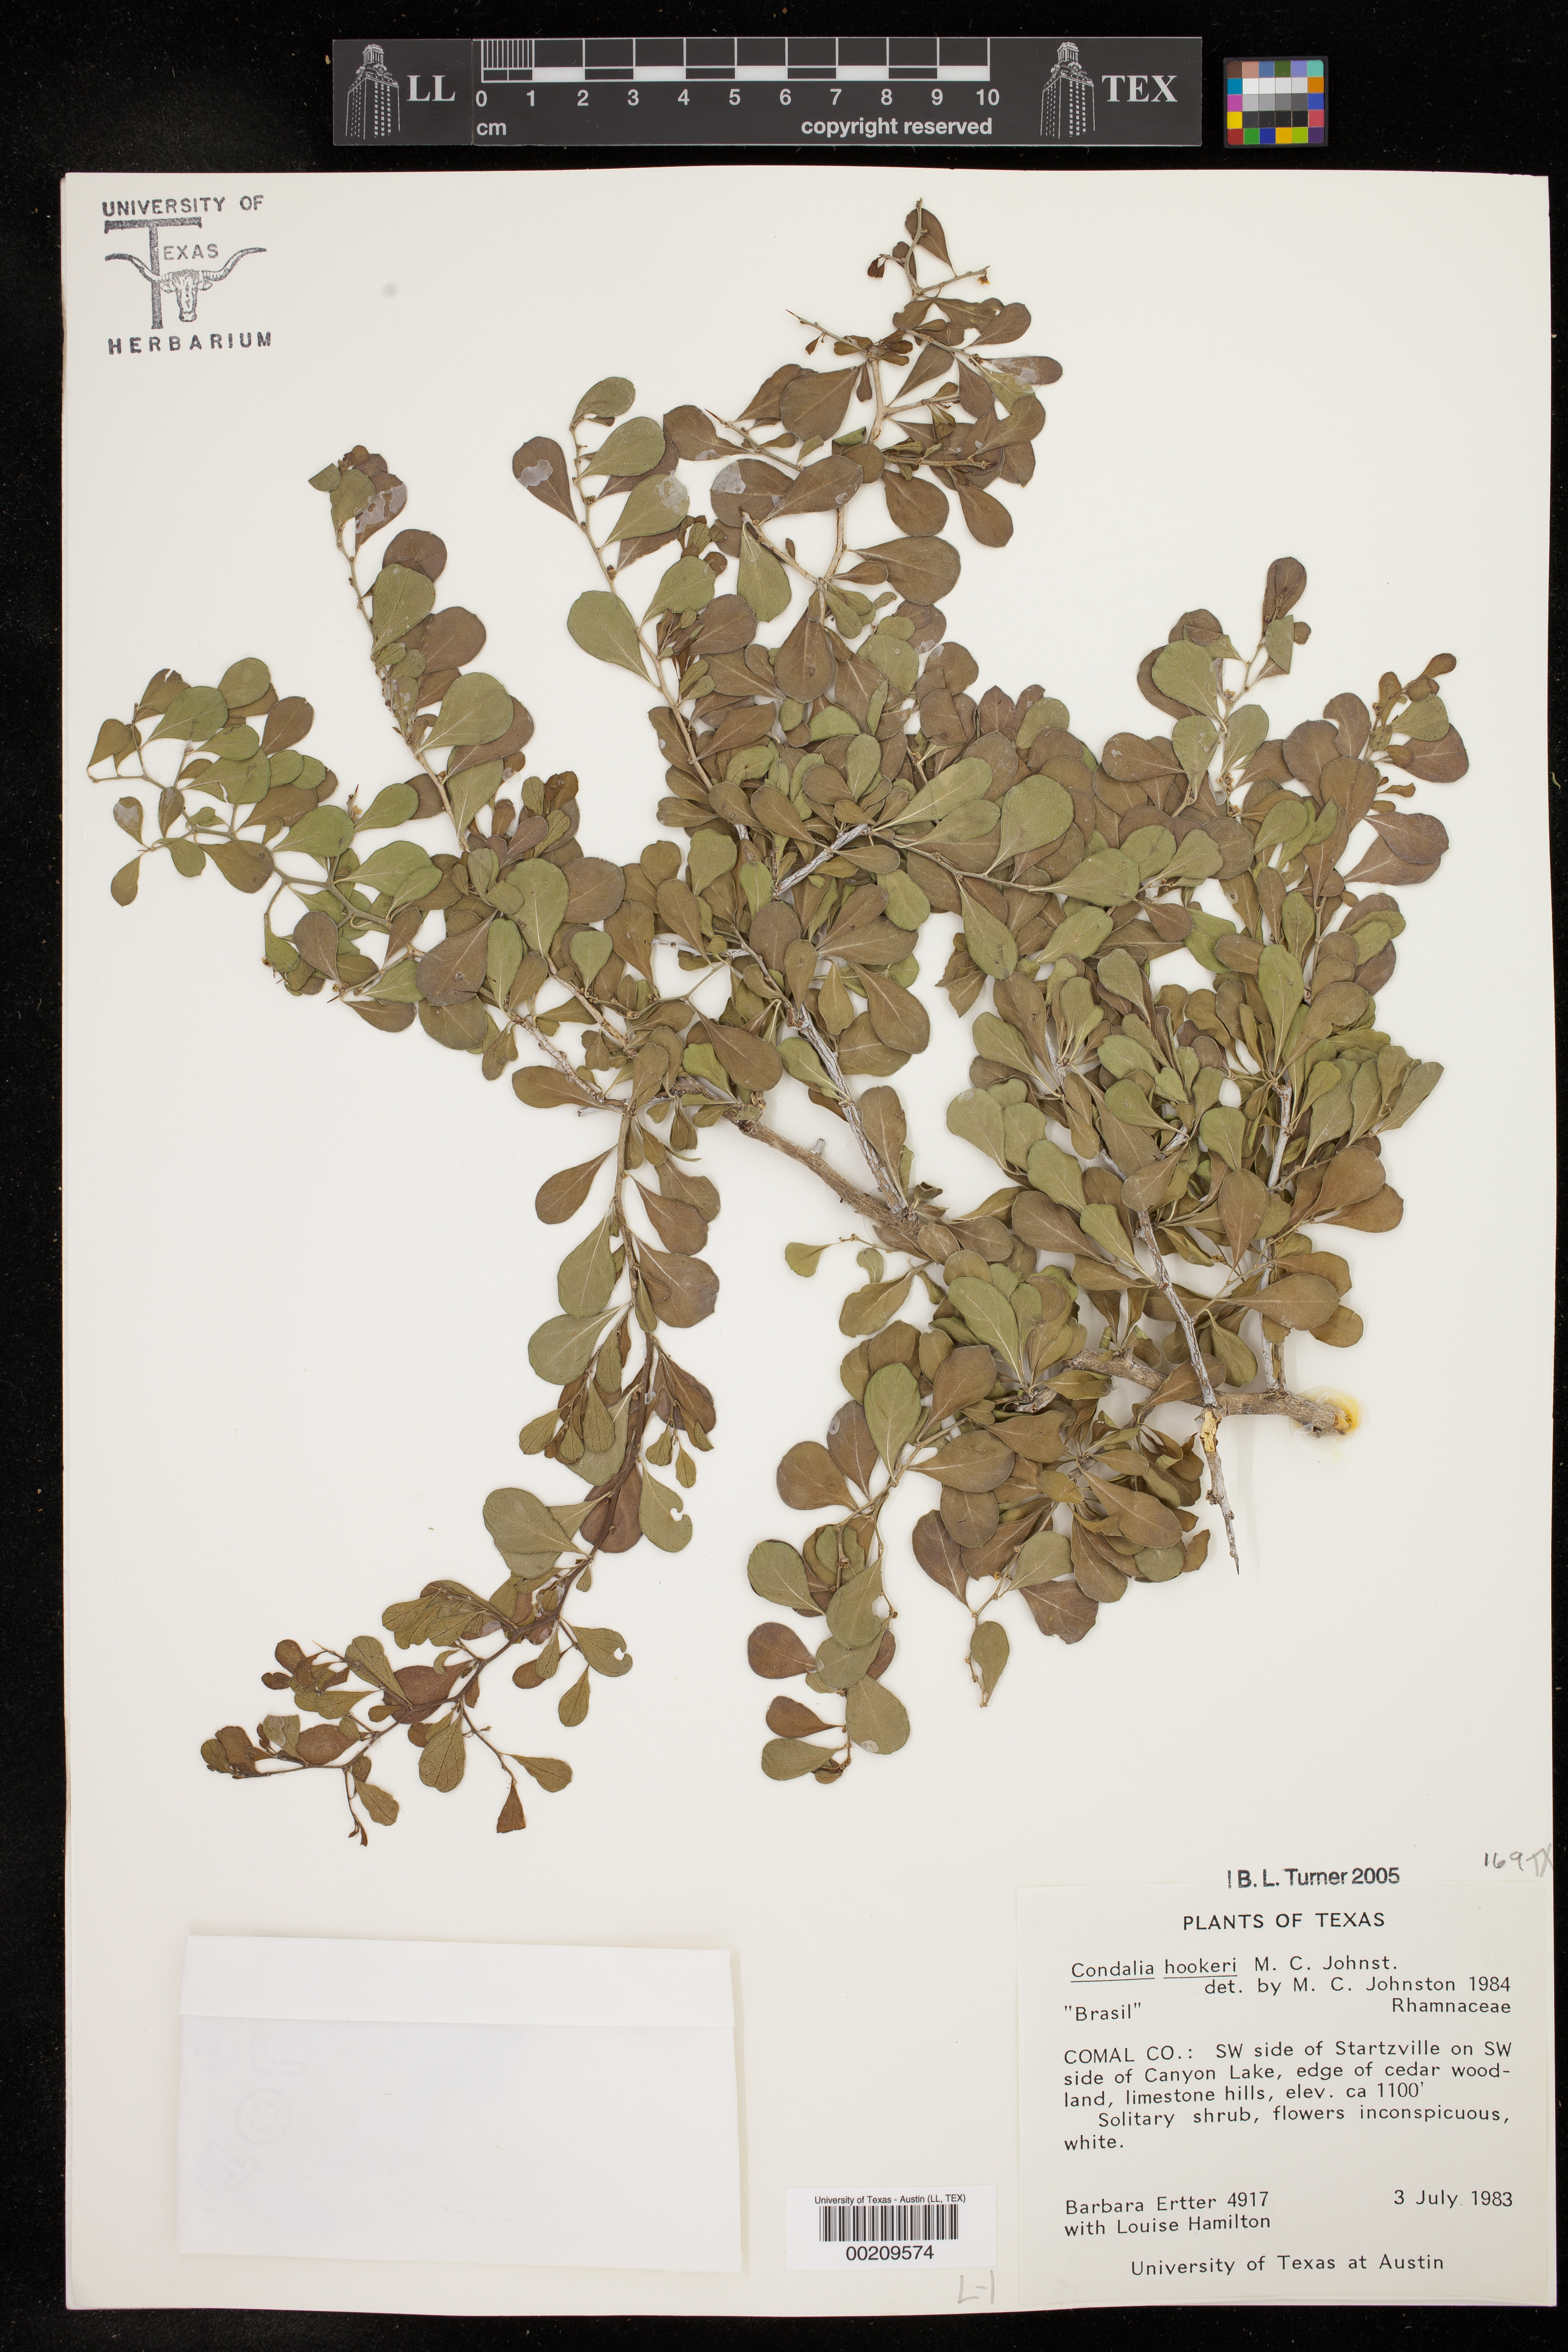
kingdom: Plantae
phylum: Tracheophyta
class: Magnoliopsida
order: Rosales
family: Rhamnaceae
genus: Condalia
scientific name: Condalia hookeri
